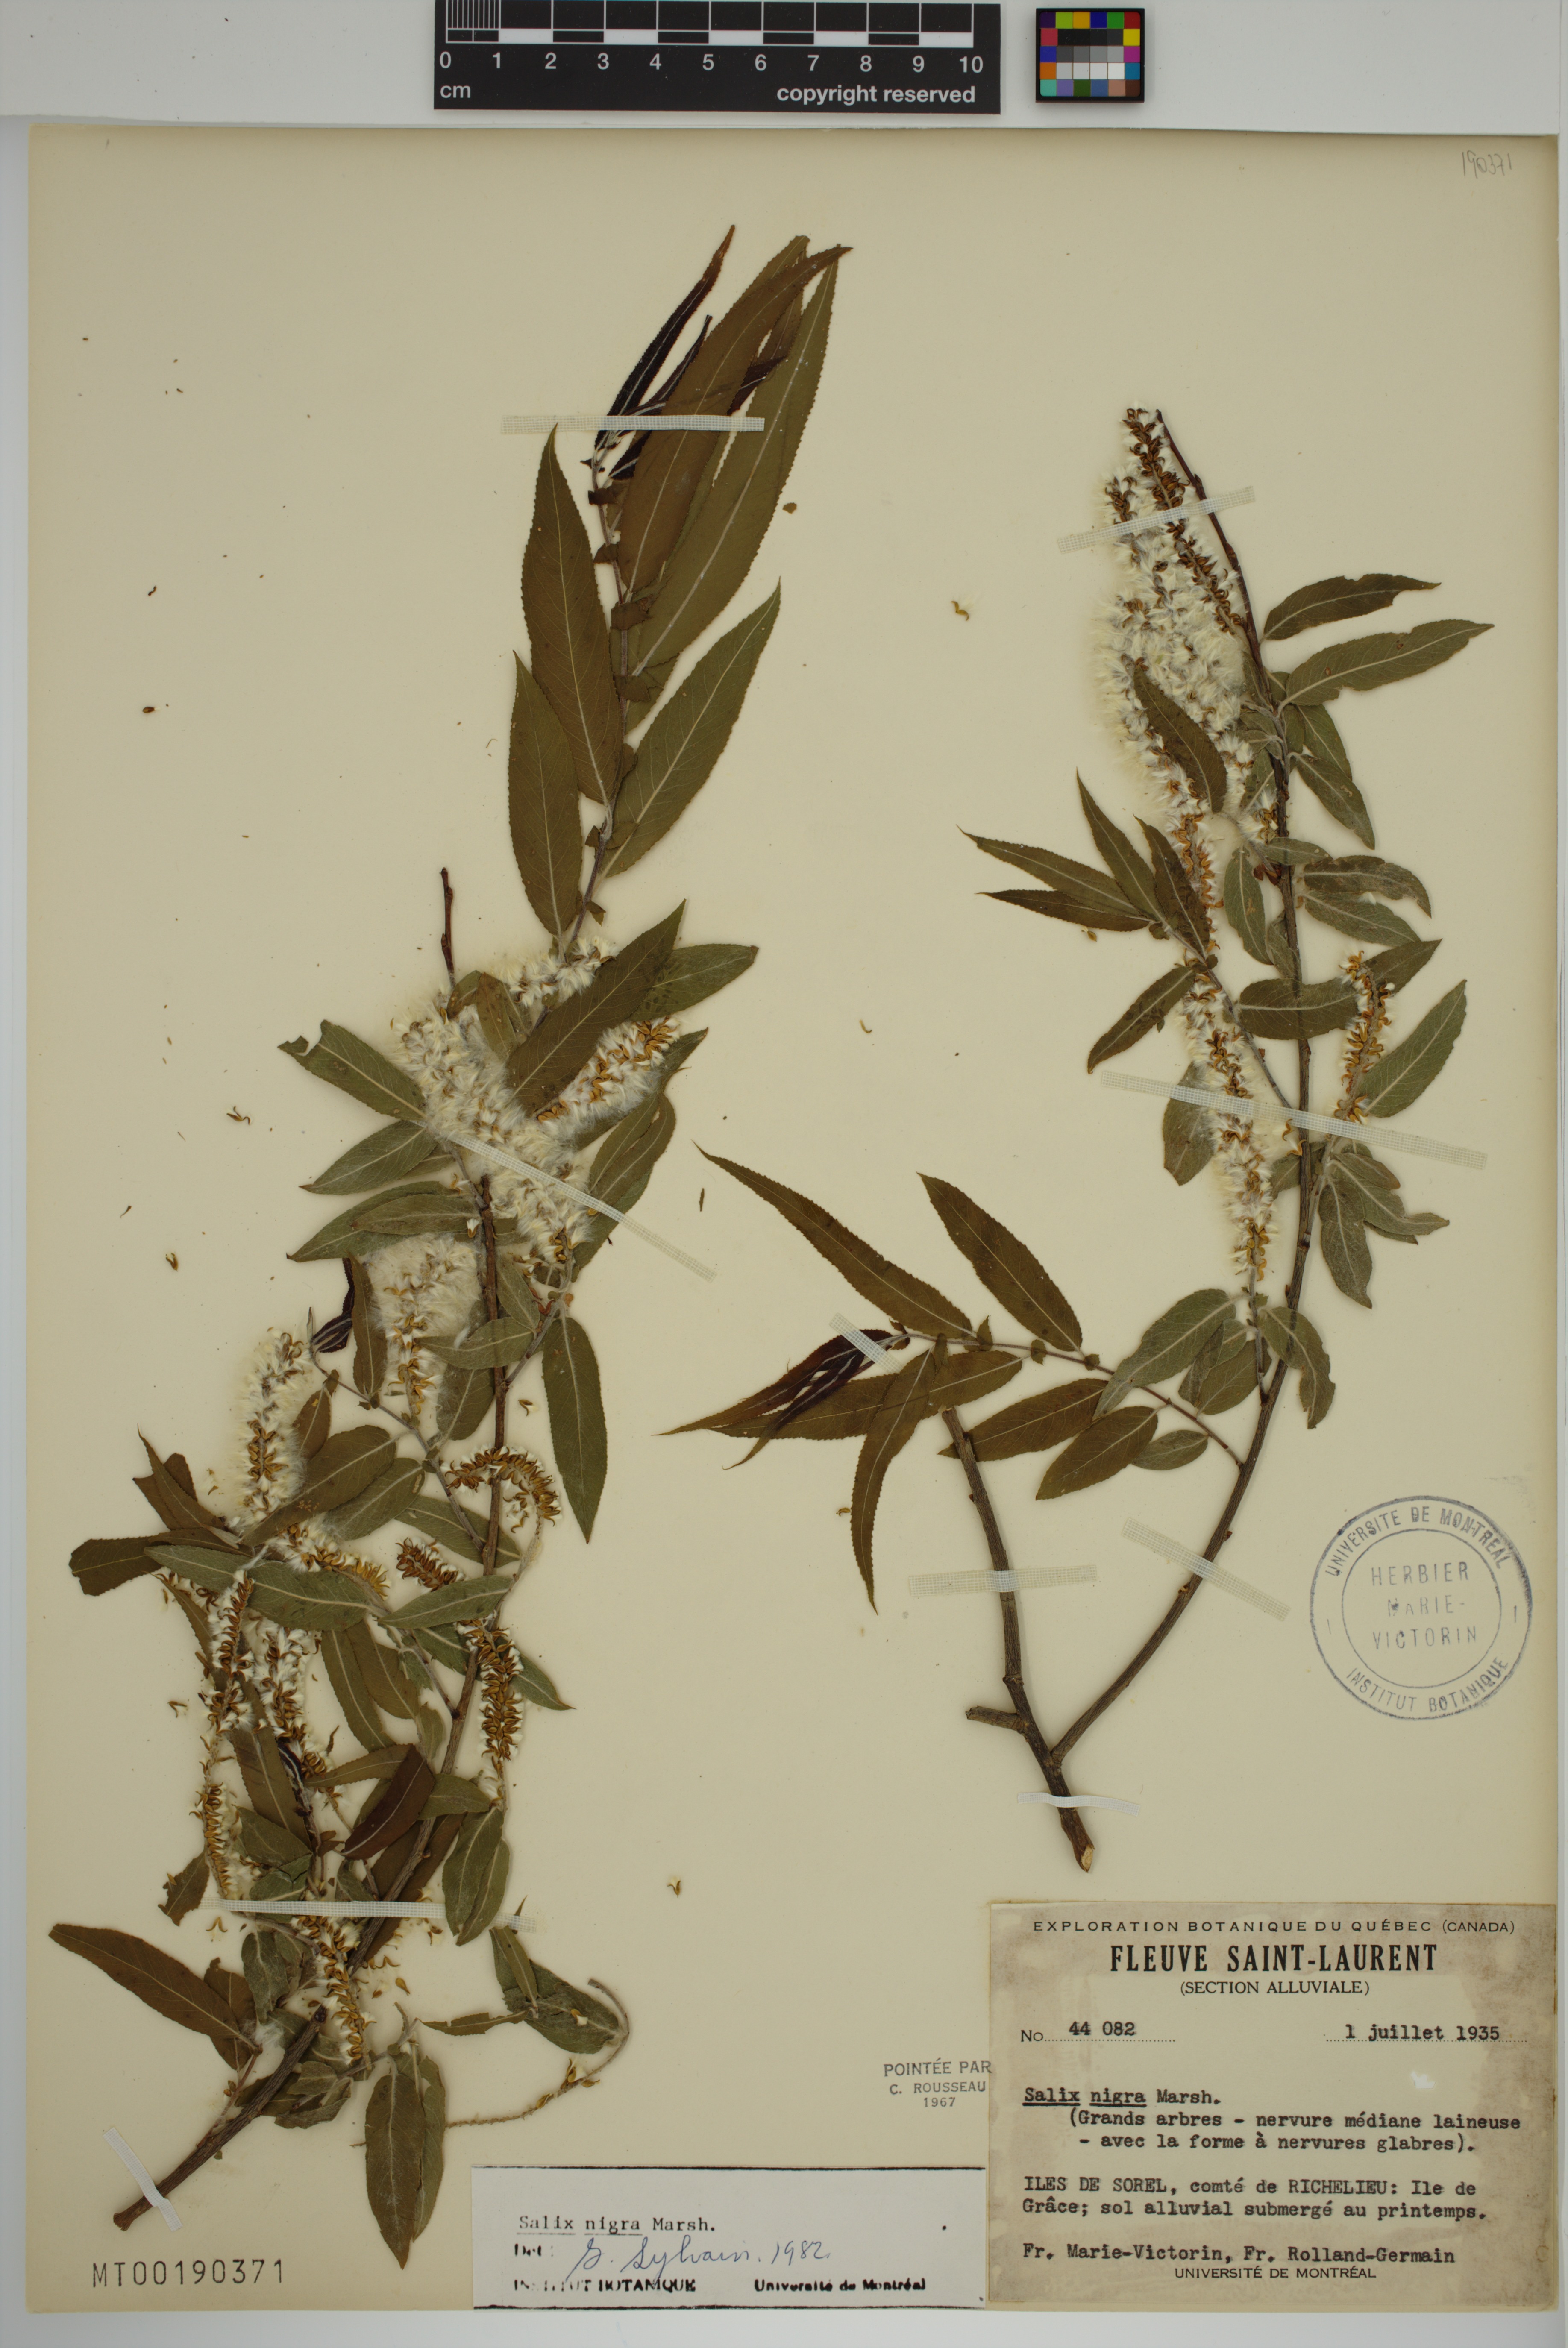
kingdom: Plantae
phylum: Tracheophyta
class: Magnoliopsida
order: Malpighiales
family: Salicaceae
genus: Salix
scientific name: Salix nigra
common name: Black willow
